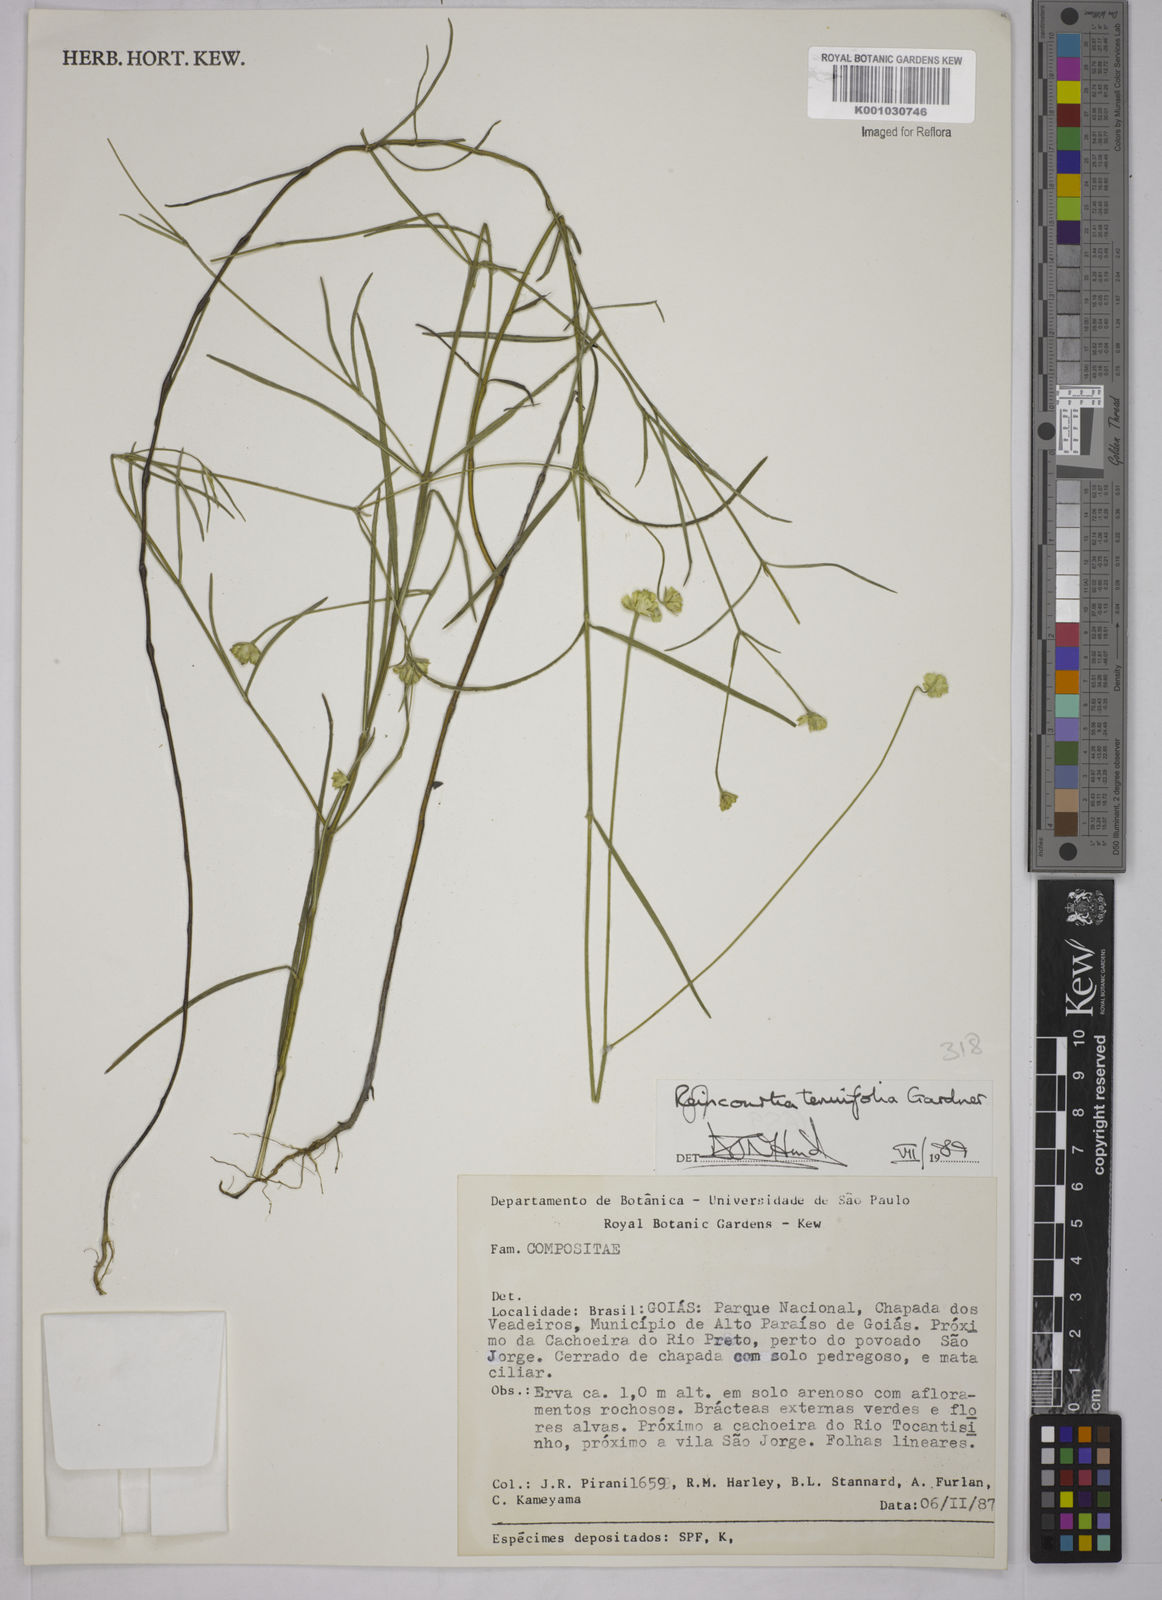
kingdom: Plantae
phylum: Tracheophyta
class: Magnoliopsida
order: Asterales
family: Asteraceae
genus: Riencourtia
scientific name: Riencourtia tenuifolia
